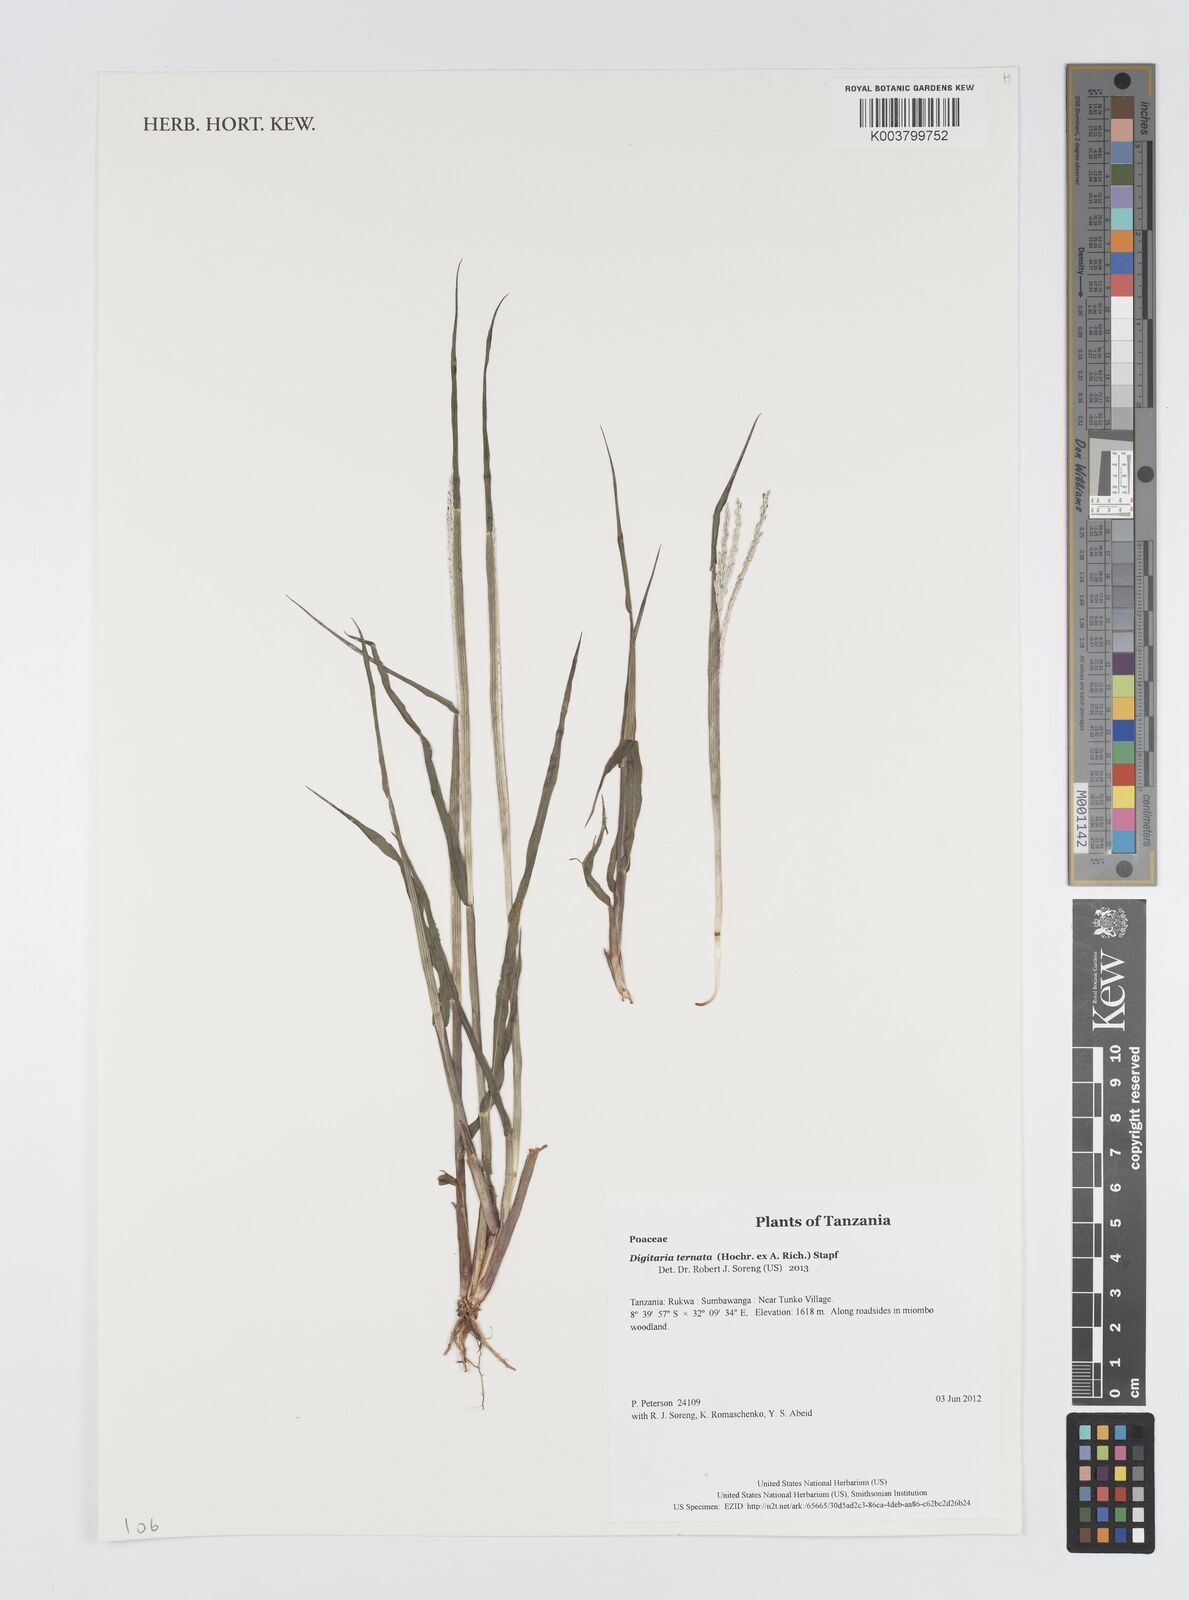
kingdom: Plantae
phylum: Tracheophyta
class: Liliopsida
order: Poales
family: Poaceae
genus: Digitaria
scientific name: Digitaria ternata
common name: Blackseed crabgrass
